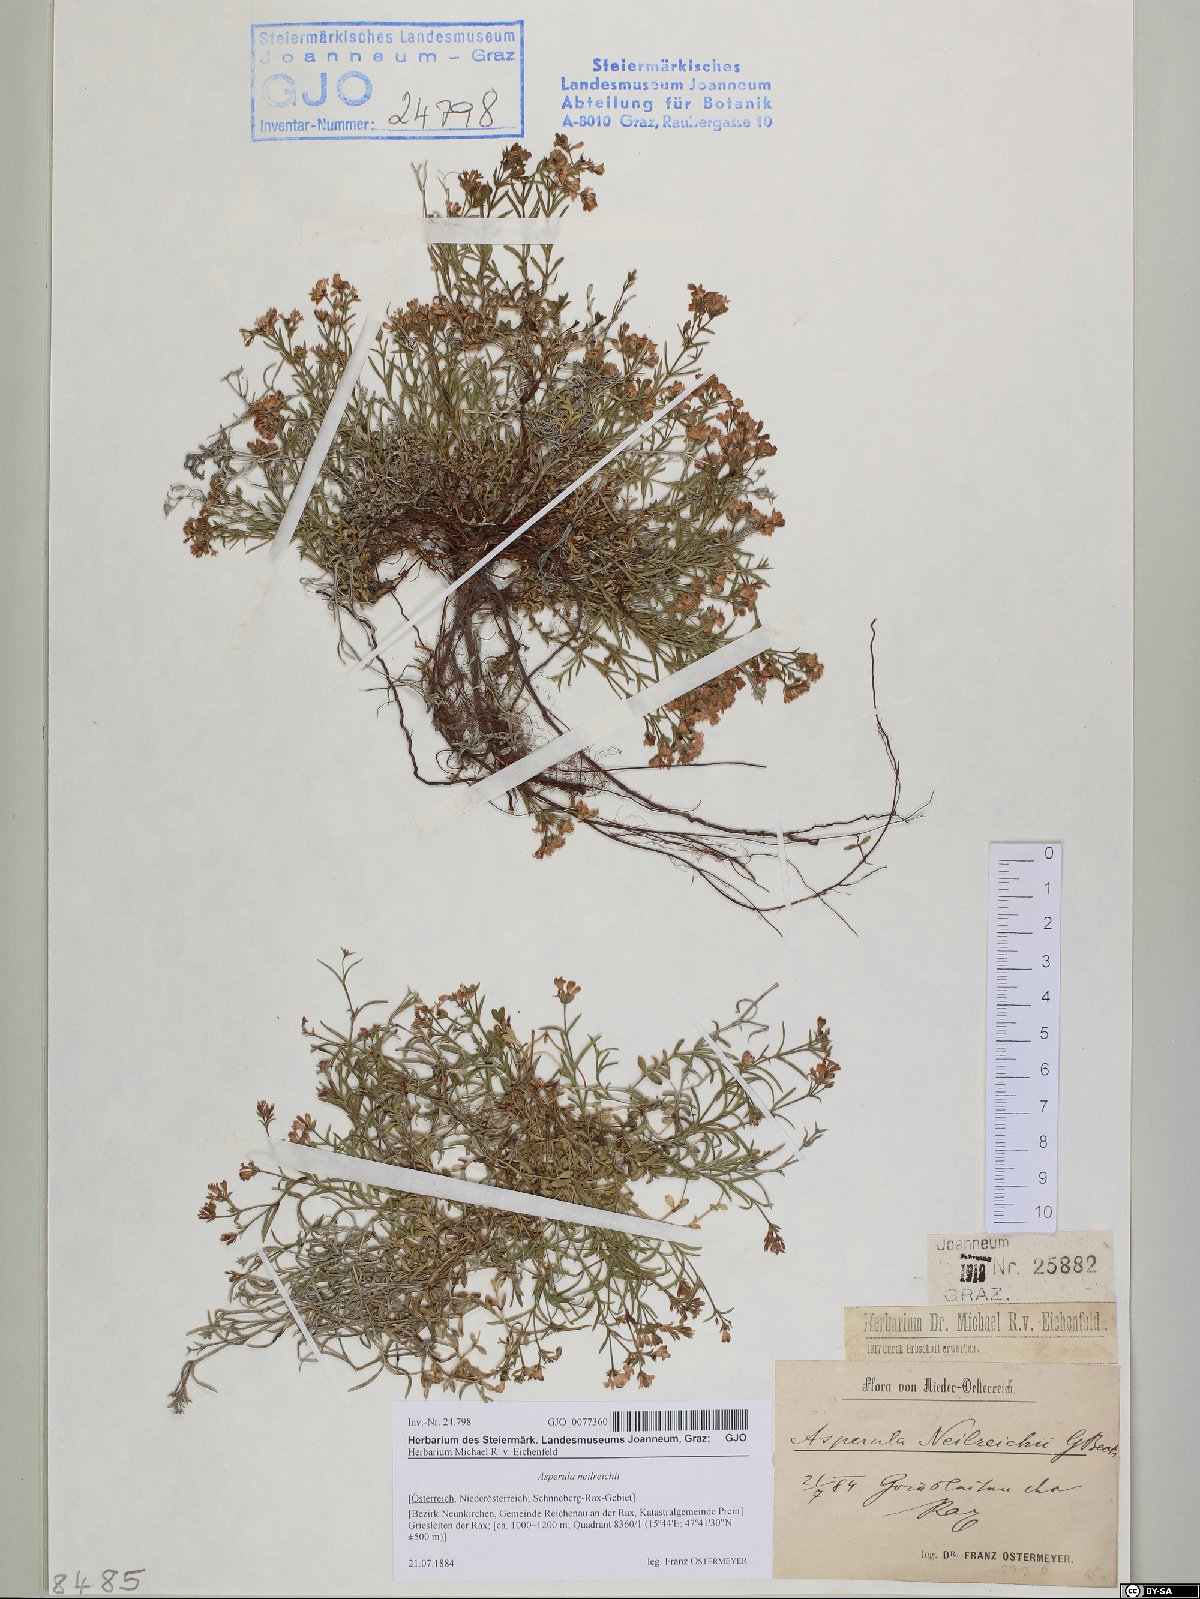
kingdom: Plantae
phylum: Tracheophyta
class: Magnoliopsida
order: Gentianales
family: Rubiaceae
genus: Cynanchica
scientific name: Cynanchica neilreichii
